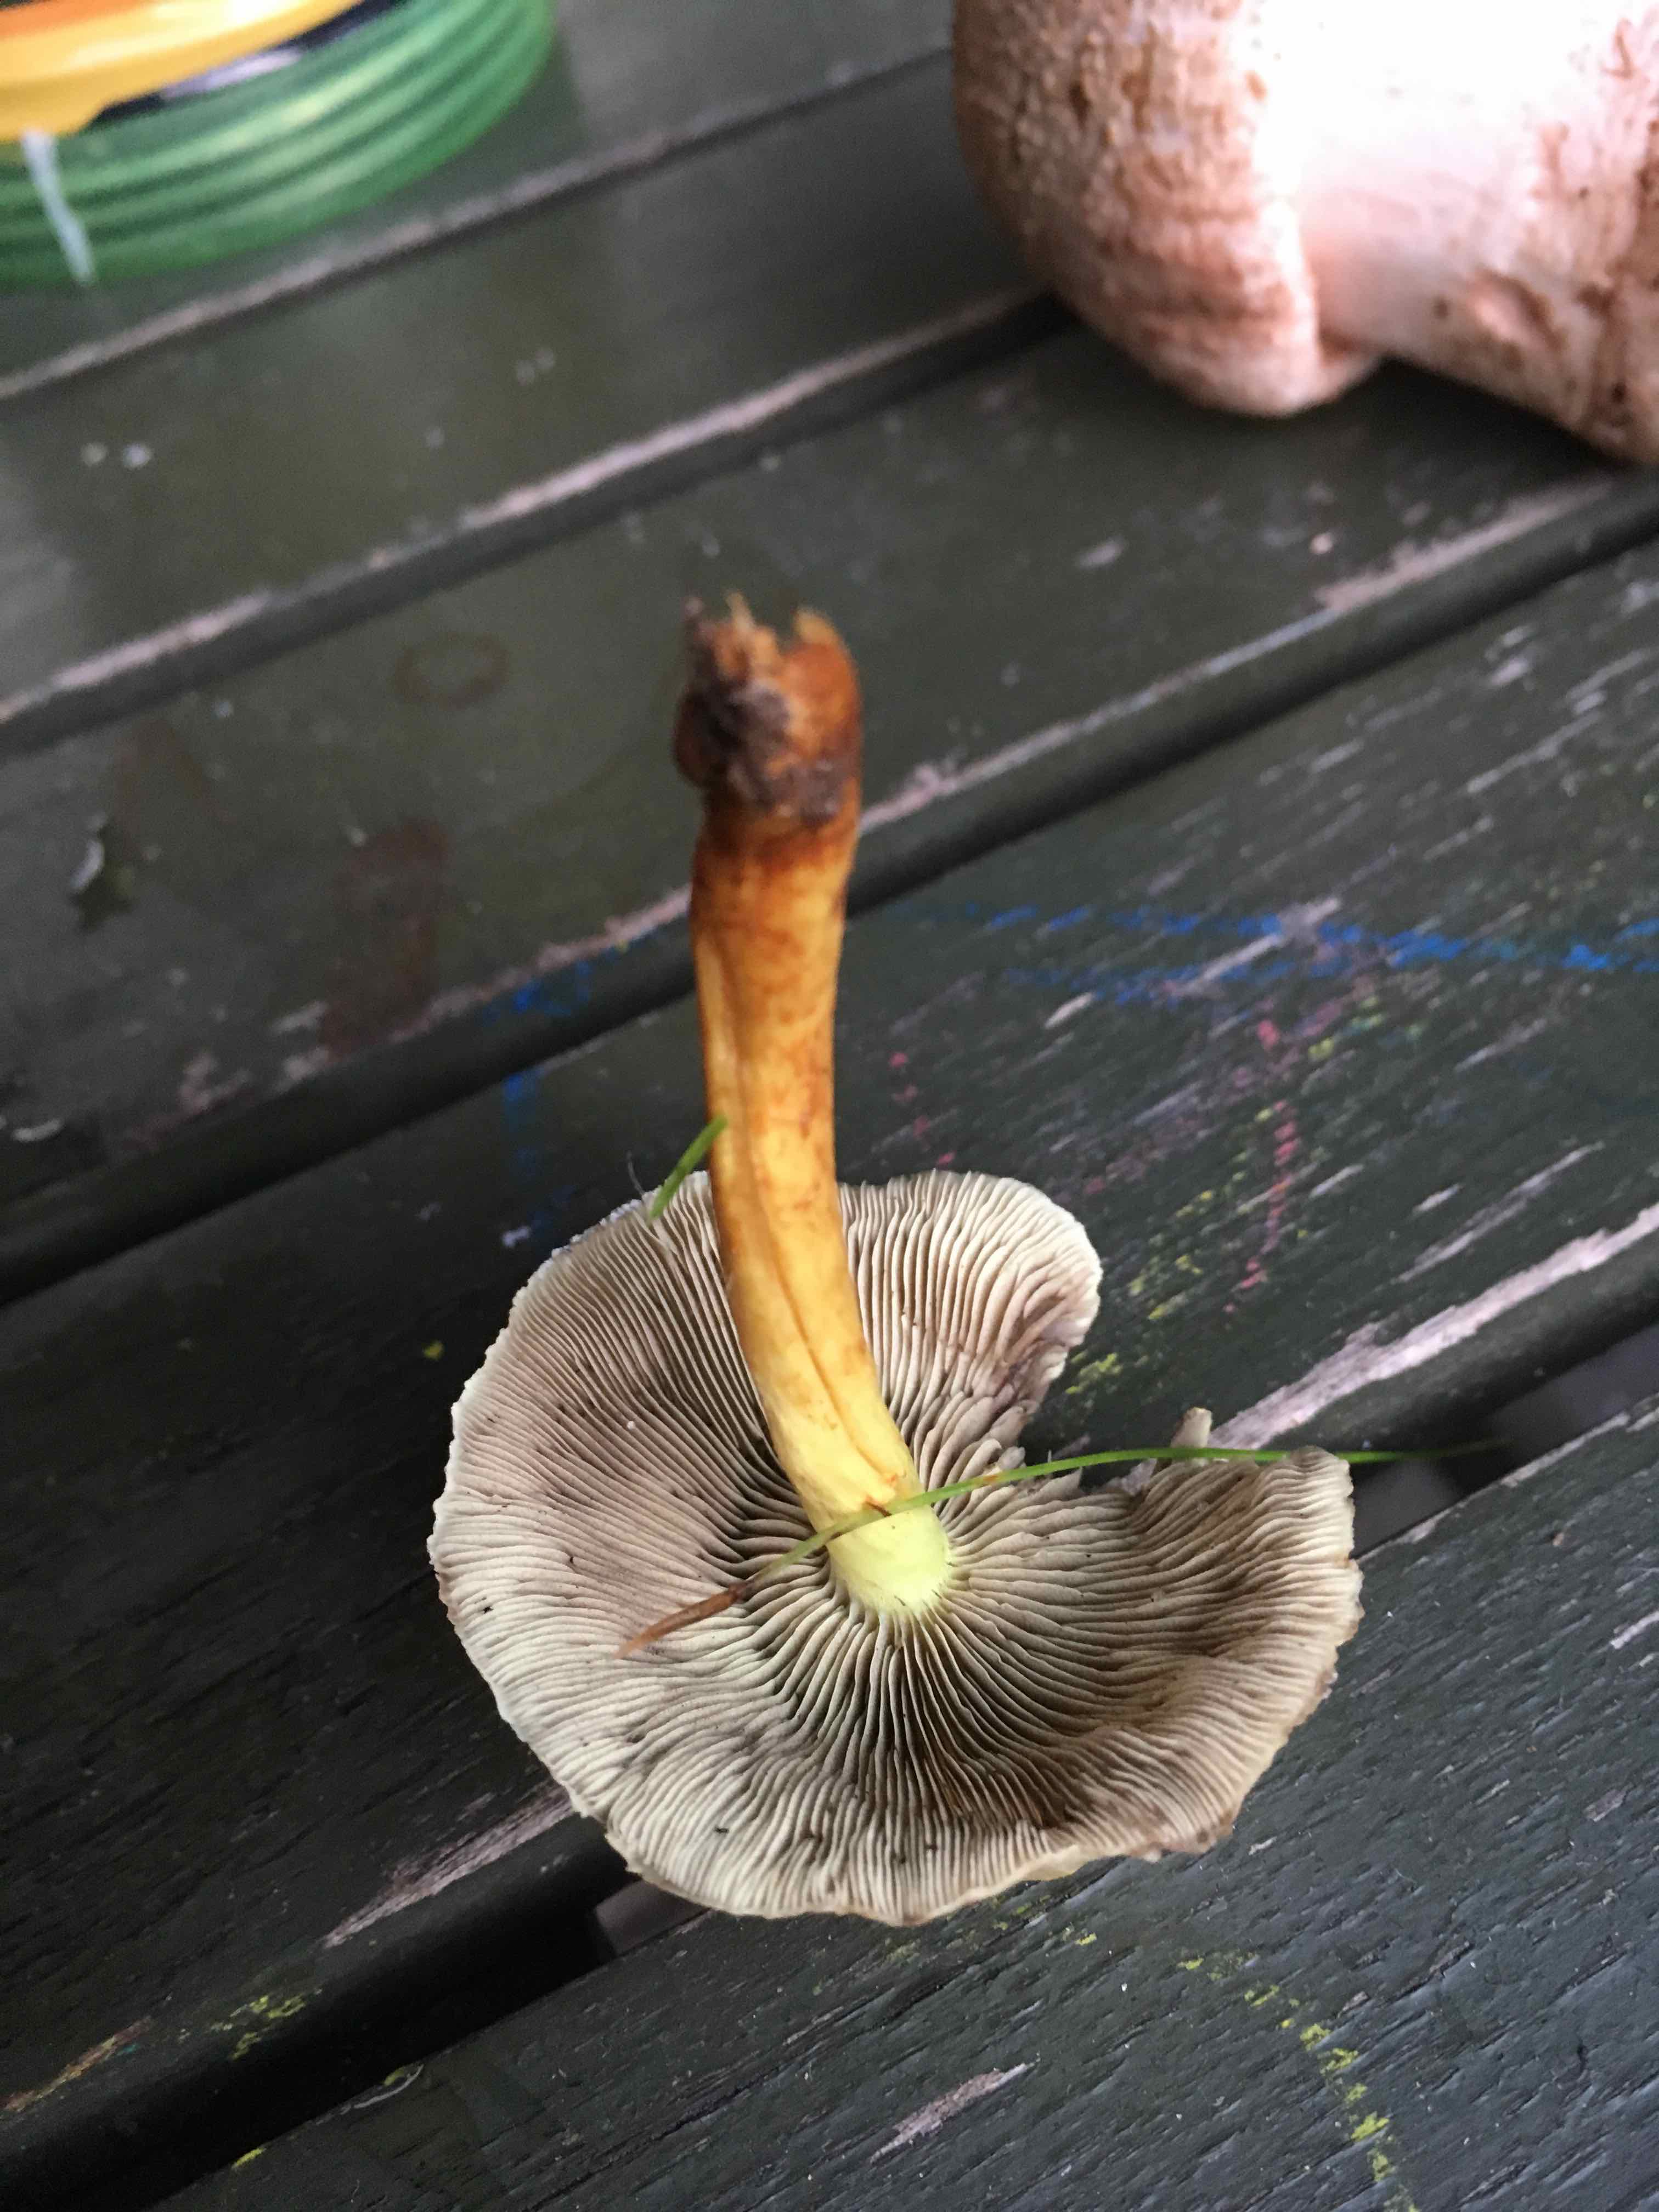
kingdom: Fungi
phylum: Basidiomycota
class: Agaricomycetes
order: Agaricales
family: Strophariaceae
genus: Hypholoma
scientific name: Hypholoma fasciculare
